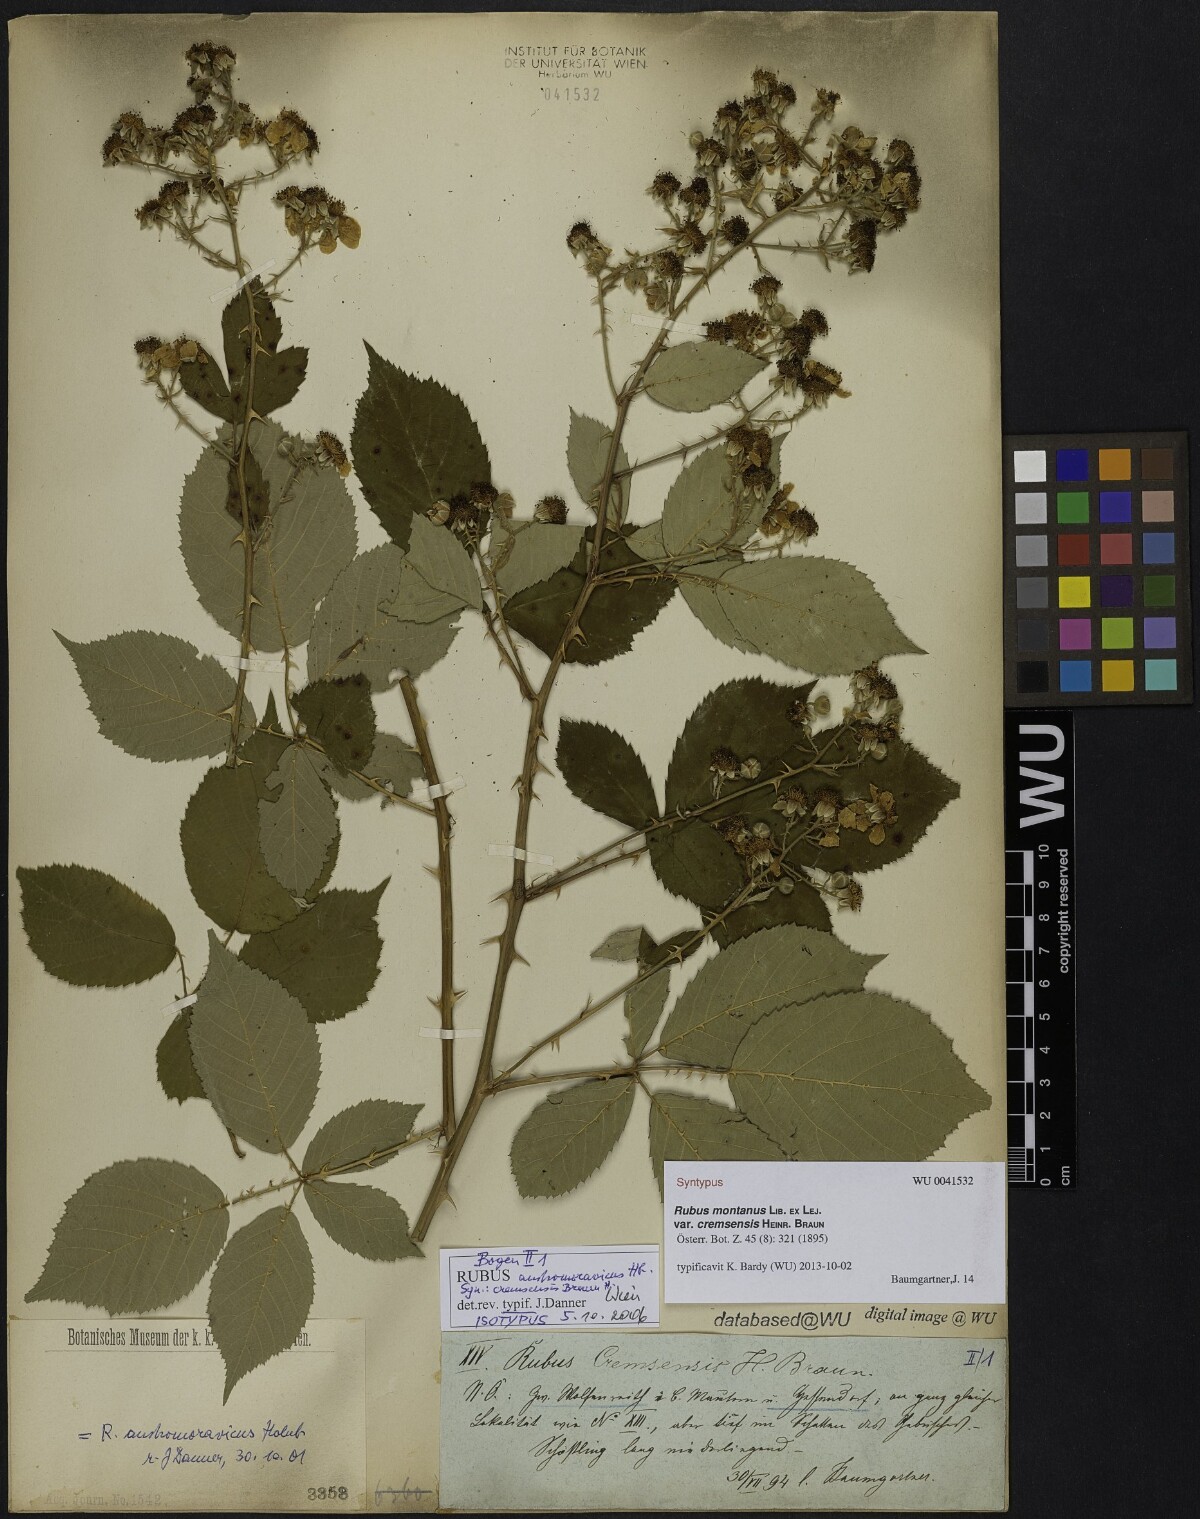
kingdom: Plantae
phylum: Tracheophyta
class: Magnoliopsida
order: Rosales
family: Rosaceae
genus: Rubus
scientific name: Rubus montanus
